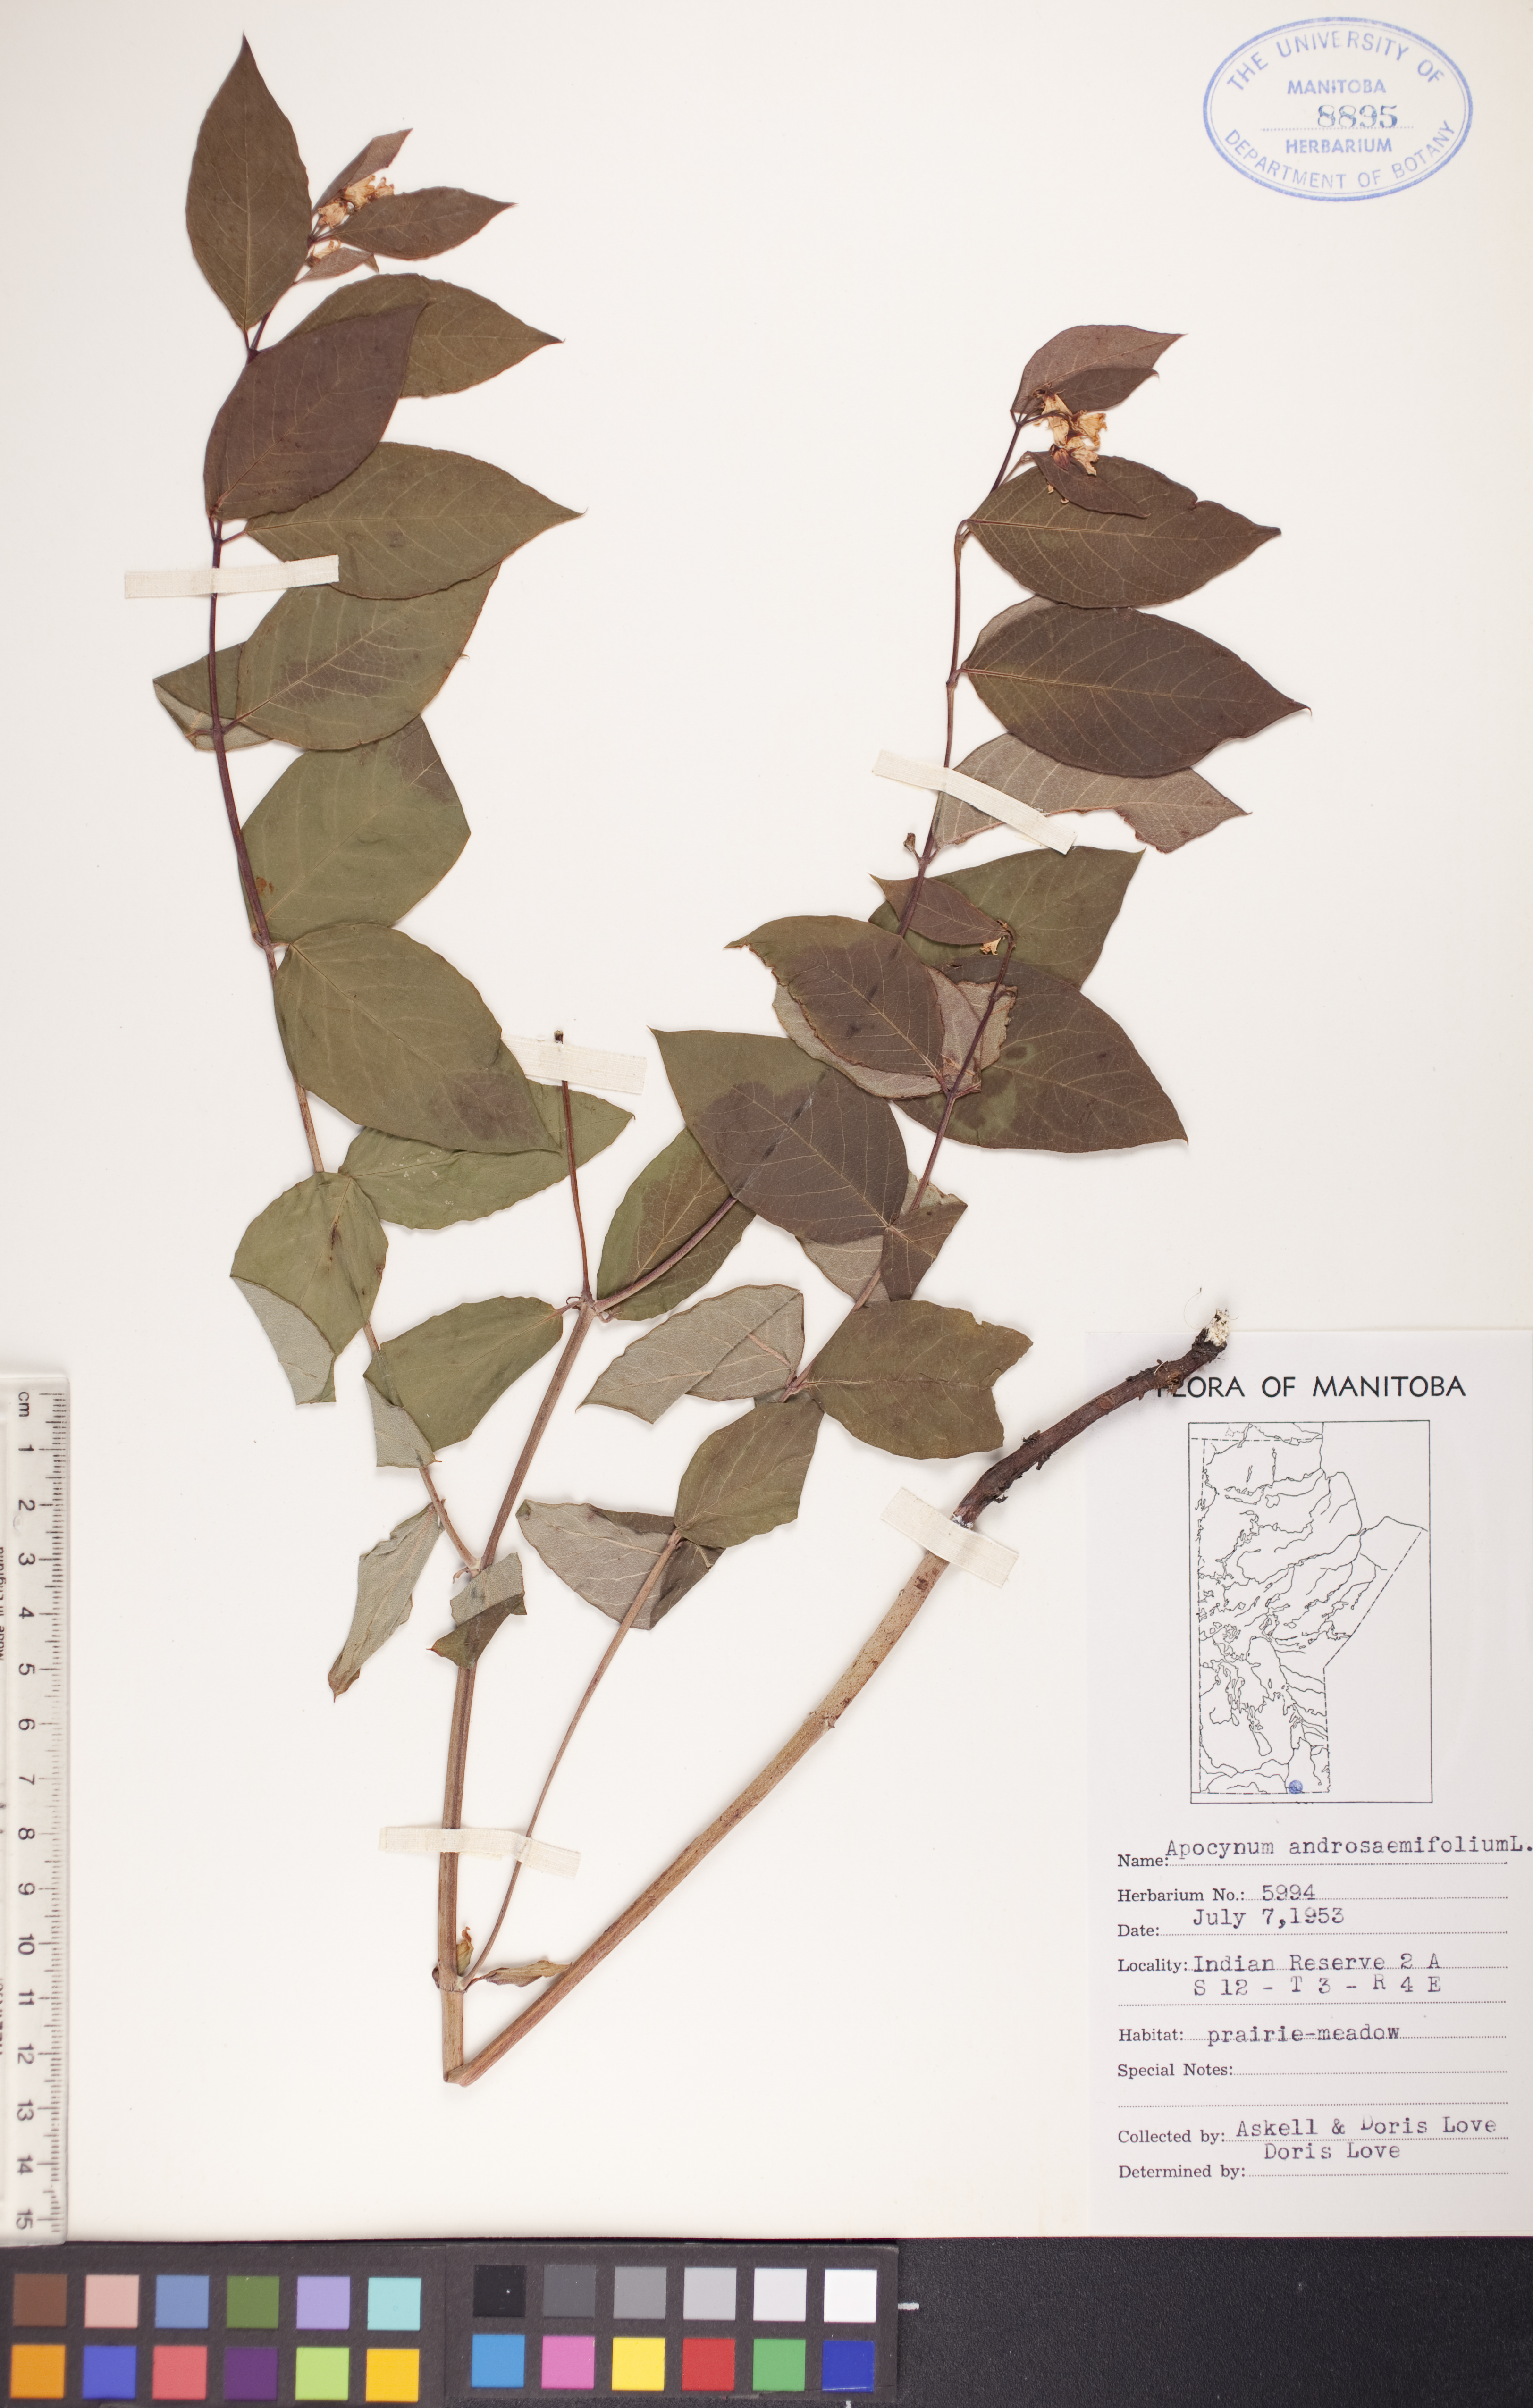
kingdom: Plantae
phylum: Tracheophyta
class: Magnoliopsida
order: Gentianales
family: Apocynaceae
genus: Apocynum
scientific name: Apocynum androsaemifolium
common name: Spreading dogbane
